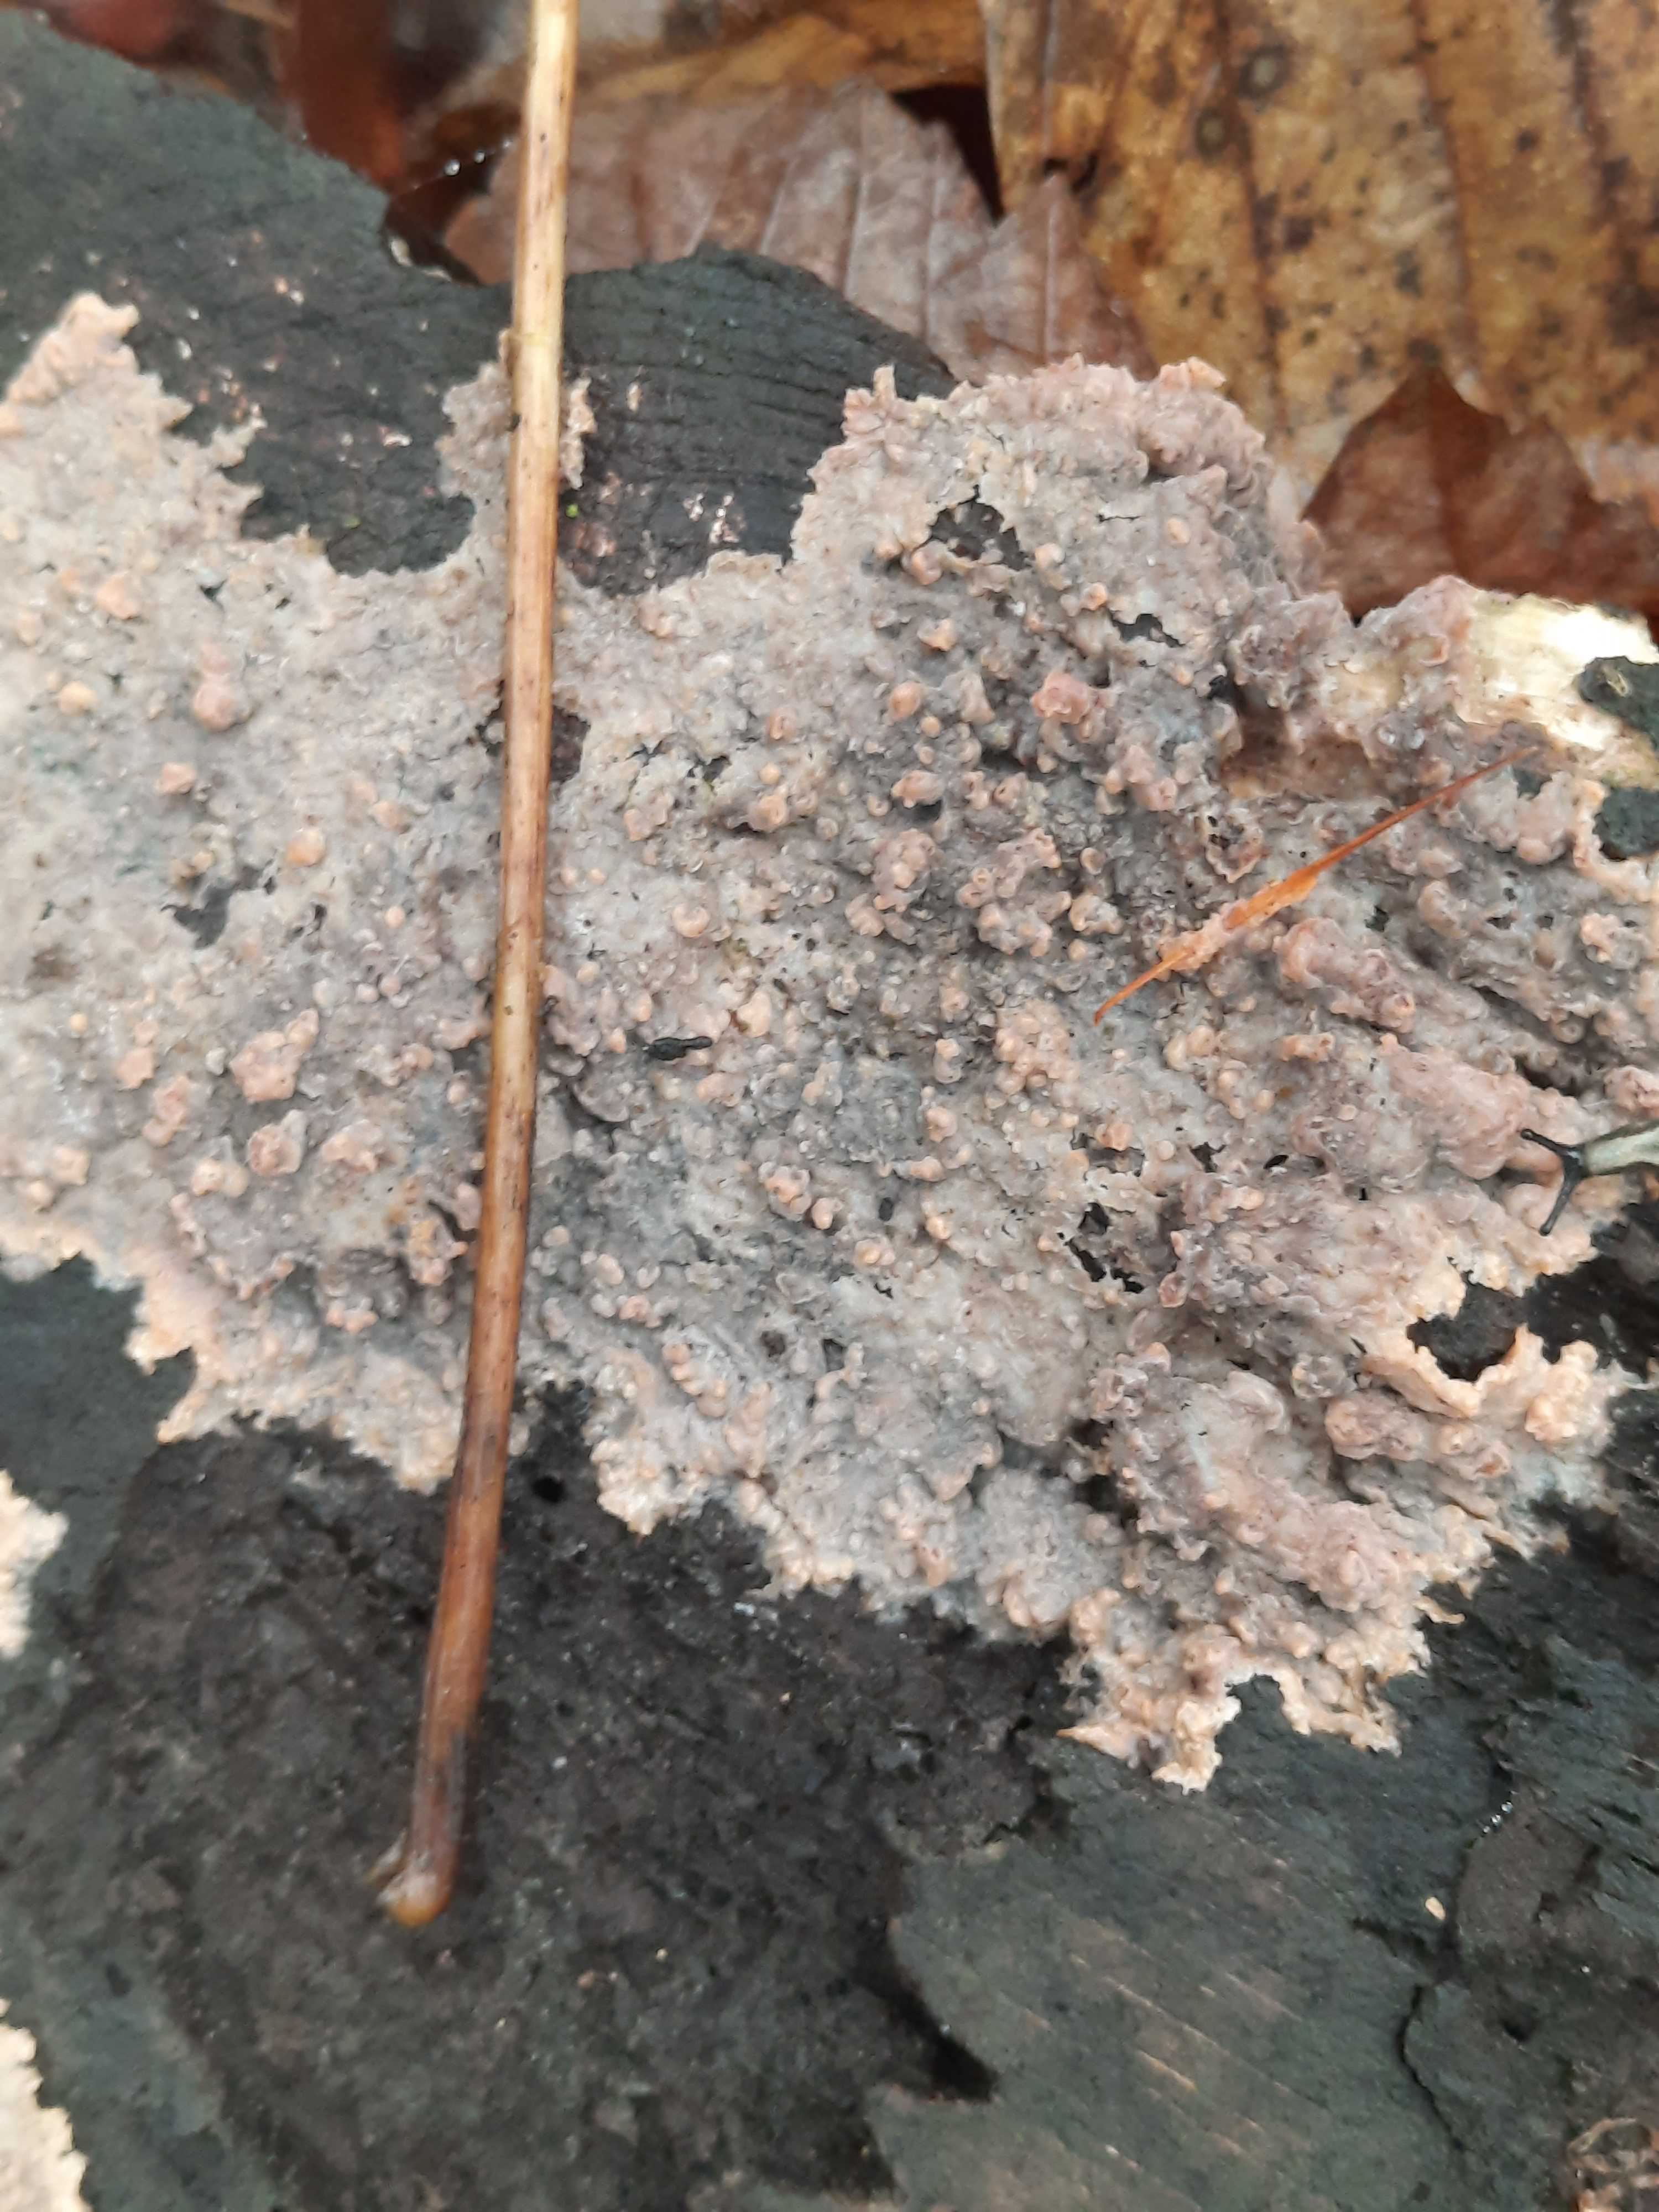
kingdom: Fungi
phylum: Basidiomycota
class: Agaricomycetes
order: Polyporales
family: Meruliaceae
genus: Phlebia
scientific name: Phlebia radiata
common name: stråle-åresvamp
